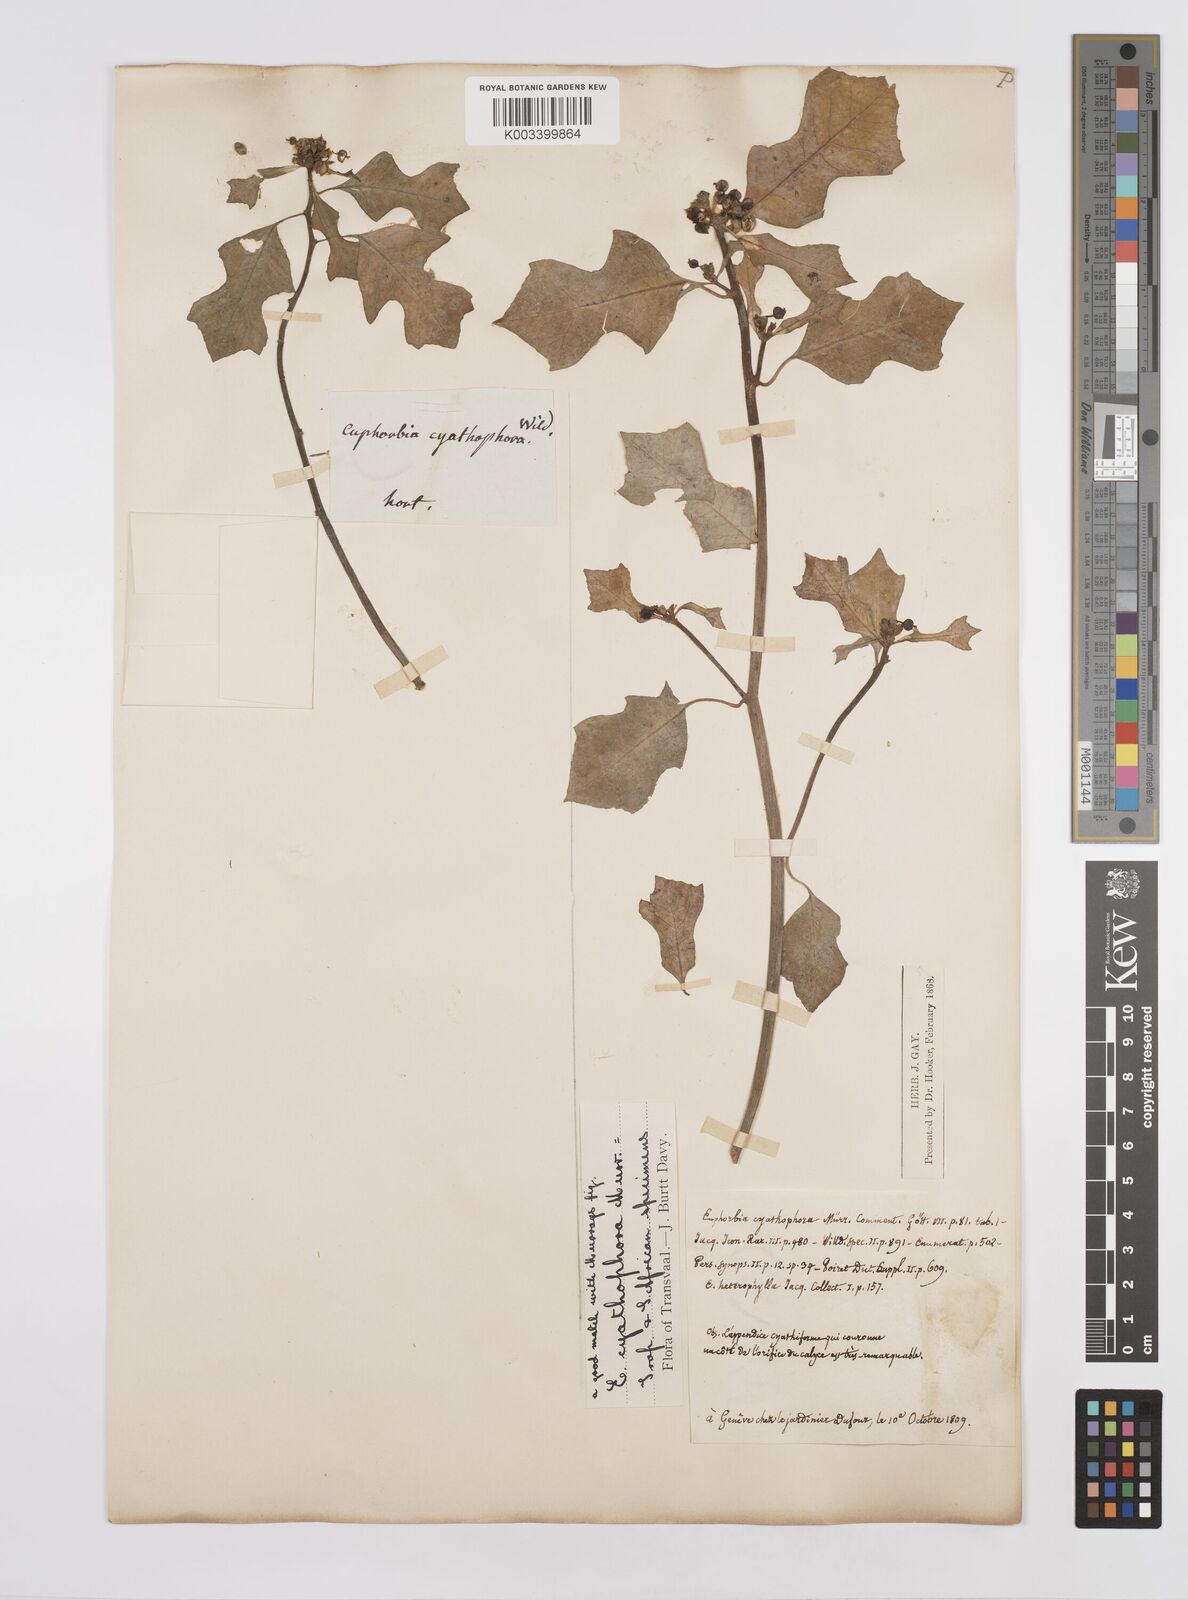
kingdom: Plantae
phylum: Tracheophyta
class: Magnoliopsida
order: Malpighiales
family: Euphorbiaceae
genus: Euphorbia
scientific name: Euphorbia heterophylla
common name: Mexican fireplant
